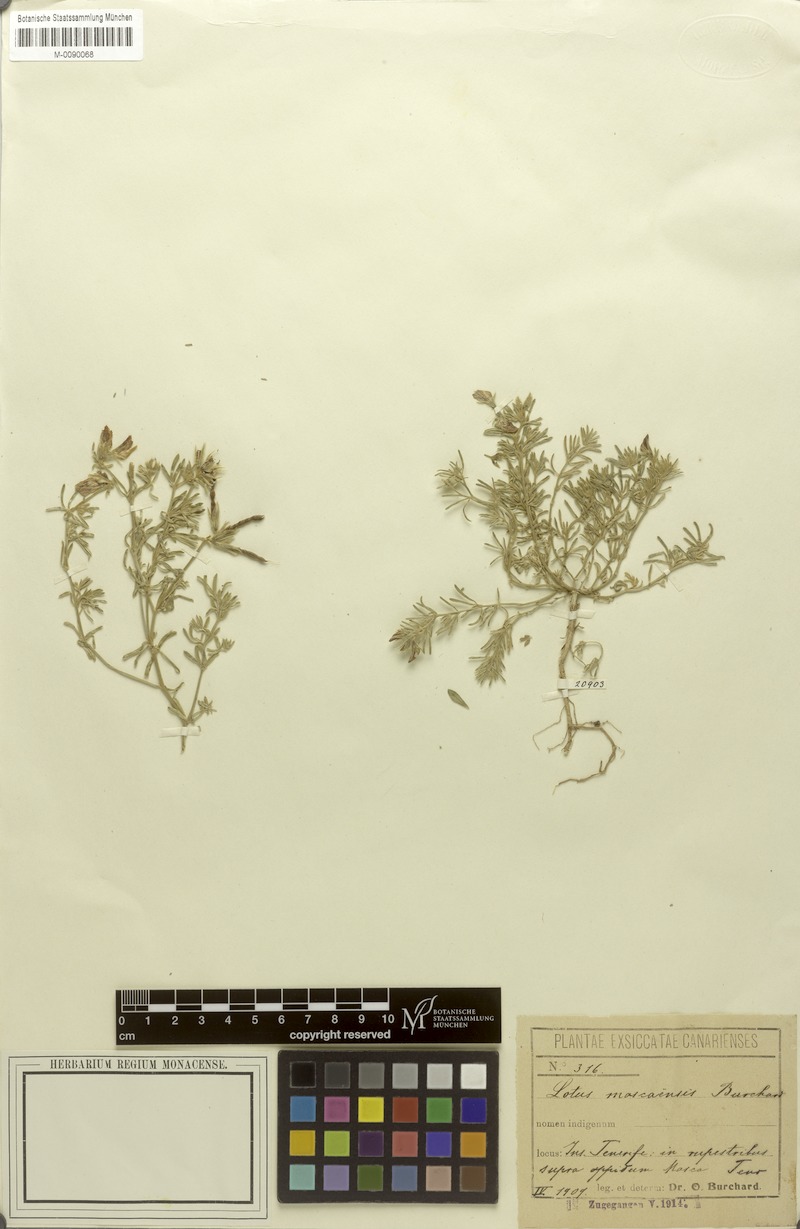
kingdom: Plantae
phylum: Tracheophyta
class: Magnoliopsida
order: Fabales
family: Fabaceae
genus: Lotus
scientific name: Lotus mascaensis
